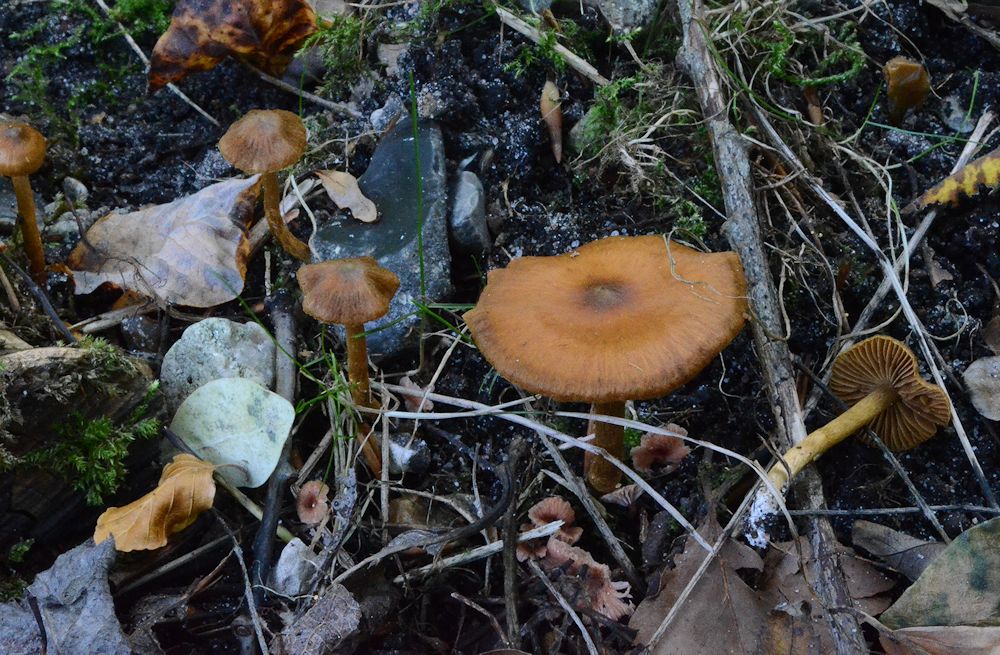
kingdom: Fungi
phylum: Basidiomycota
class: Agaricomycetes
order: Agaricales
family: Cortinariaceae
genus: Cortinarius
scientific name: Cortinarius saniosus
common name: gultrævlet slørhat
